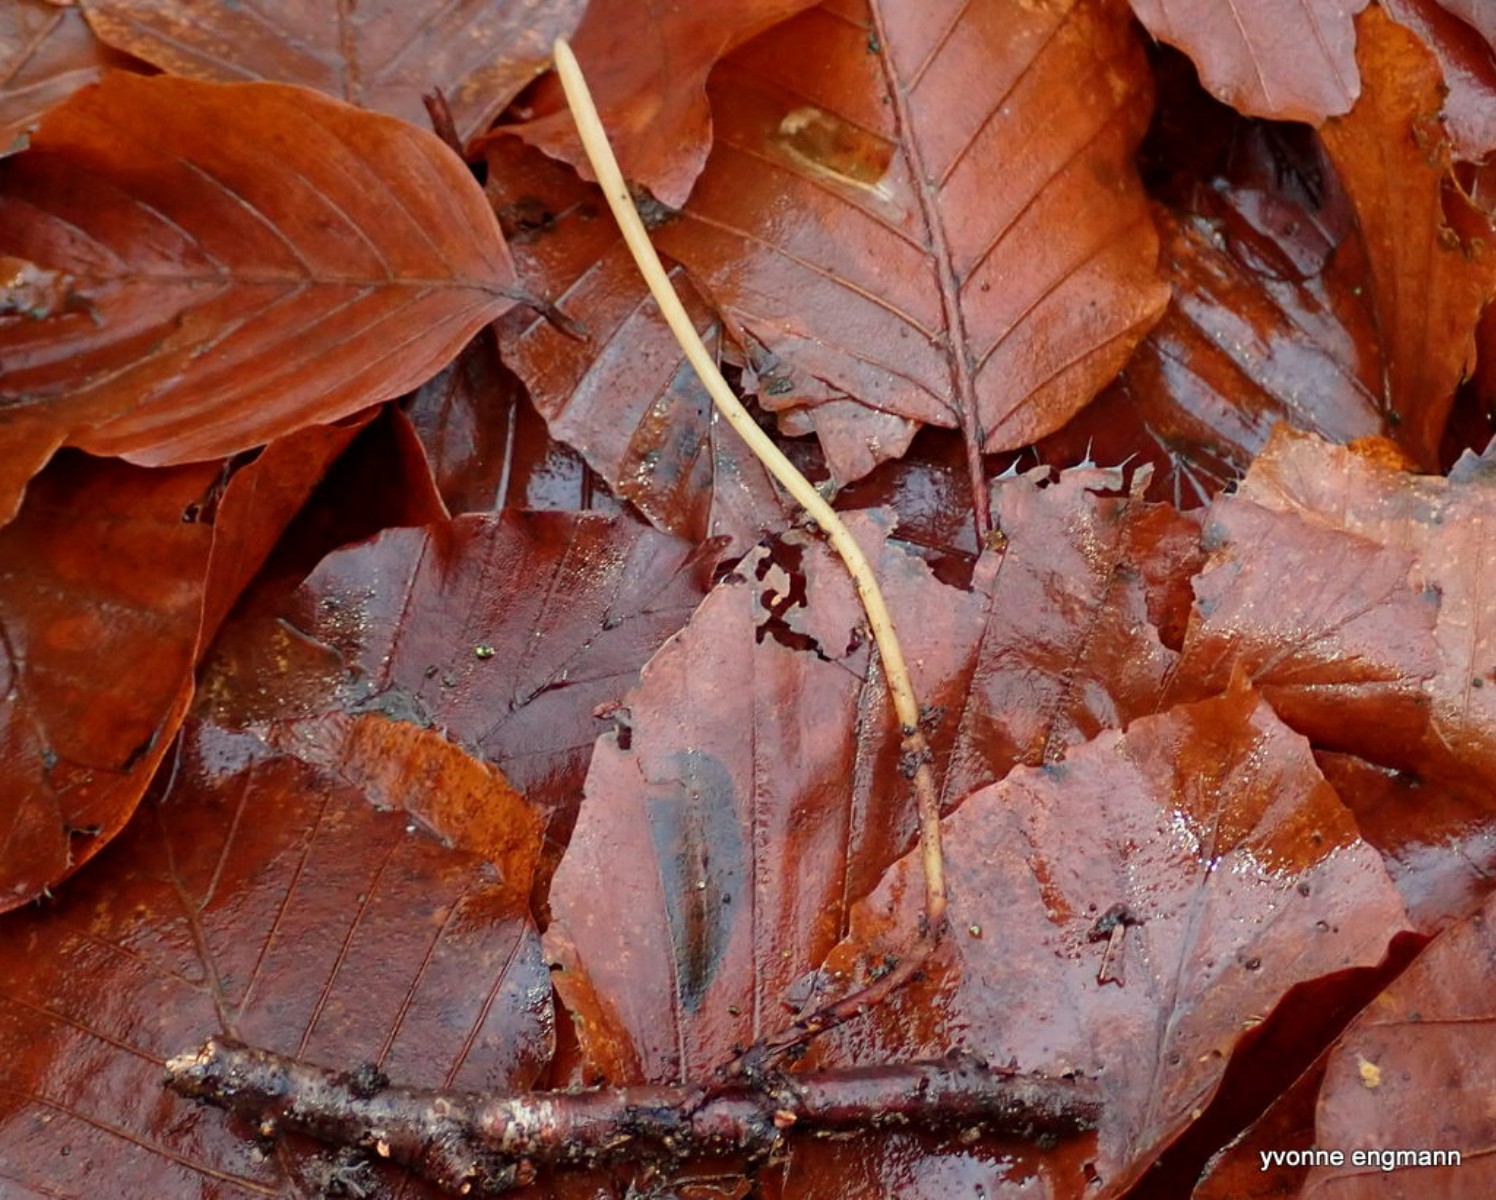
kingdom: Fungi
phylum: Basidiomycota
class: Agaricomycetes
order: Agaricales
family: Typhulaceae
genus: Typhula
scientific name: Typhula fistulosa
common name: pibet rørkølle
